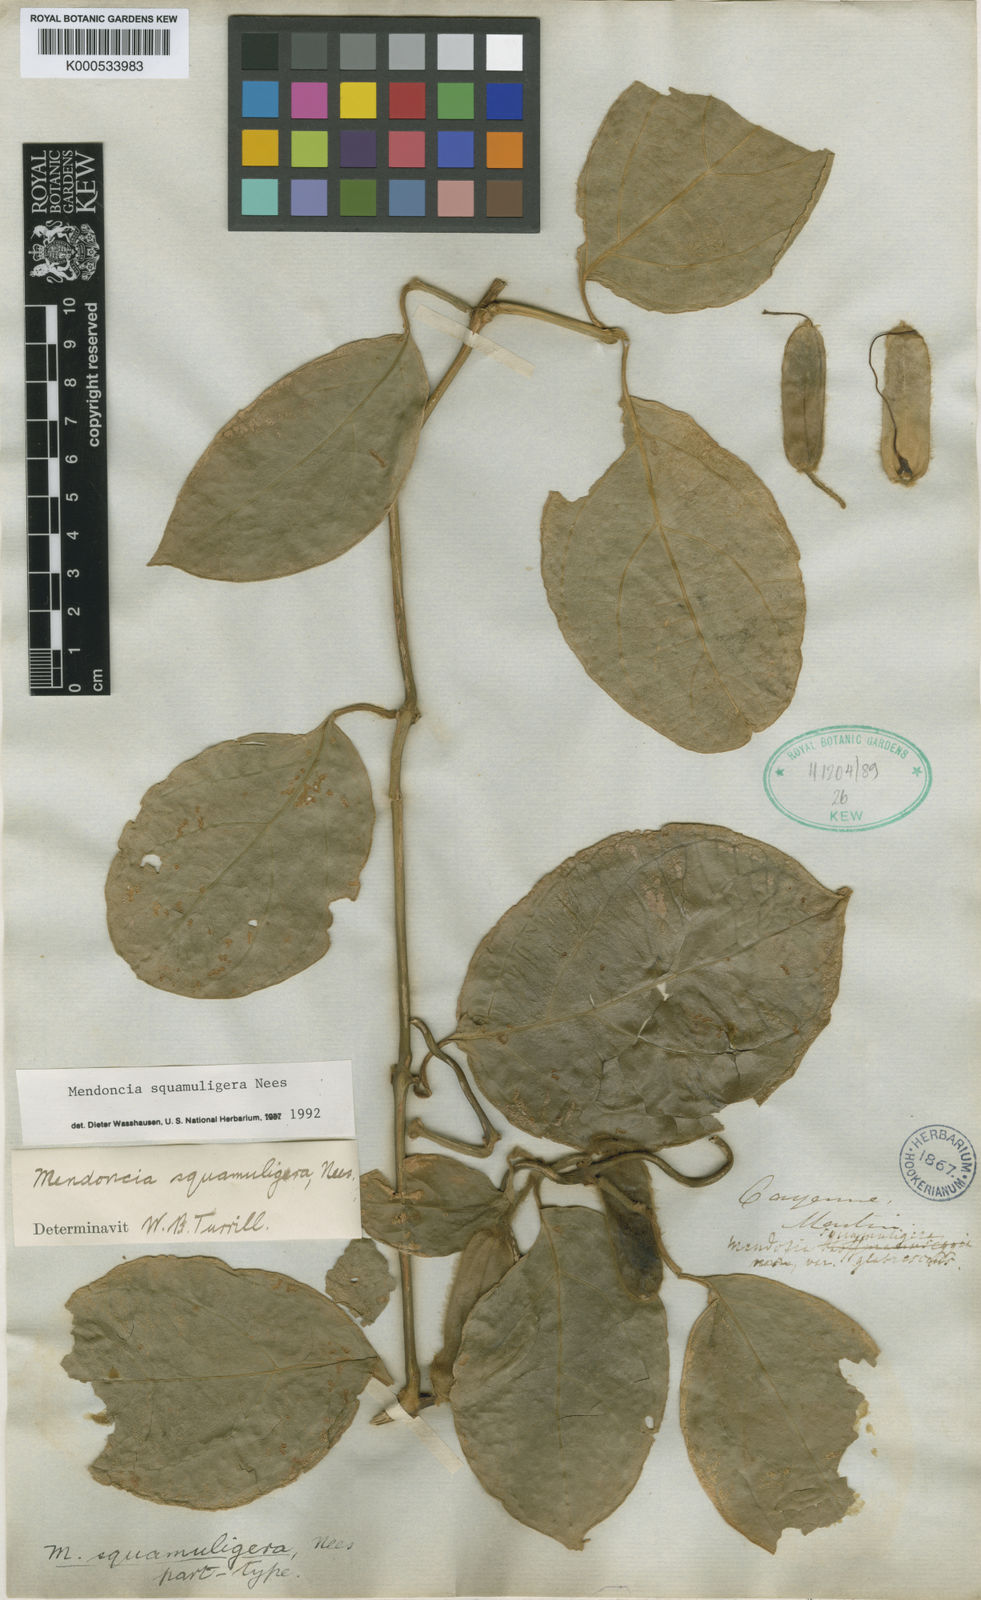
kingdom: Plantae
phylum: Tracheophyta
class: Magnoliopsida
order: Lamiales
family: Acanthaceae
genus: Mendoncia
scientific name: Mendoncia squamuligera
